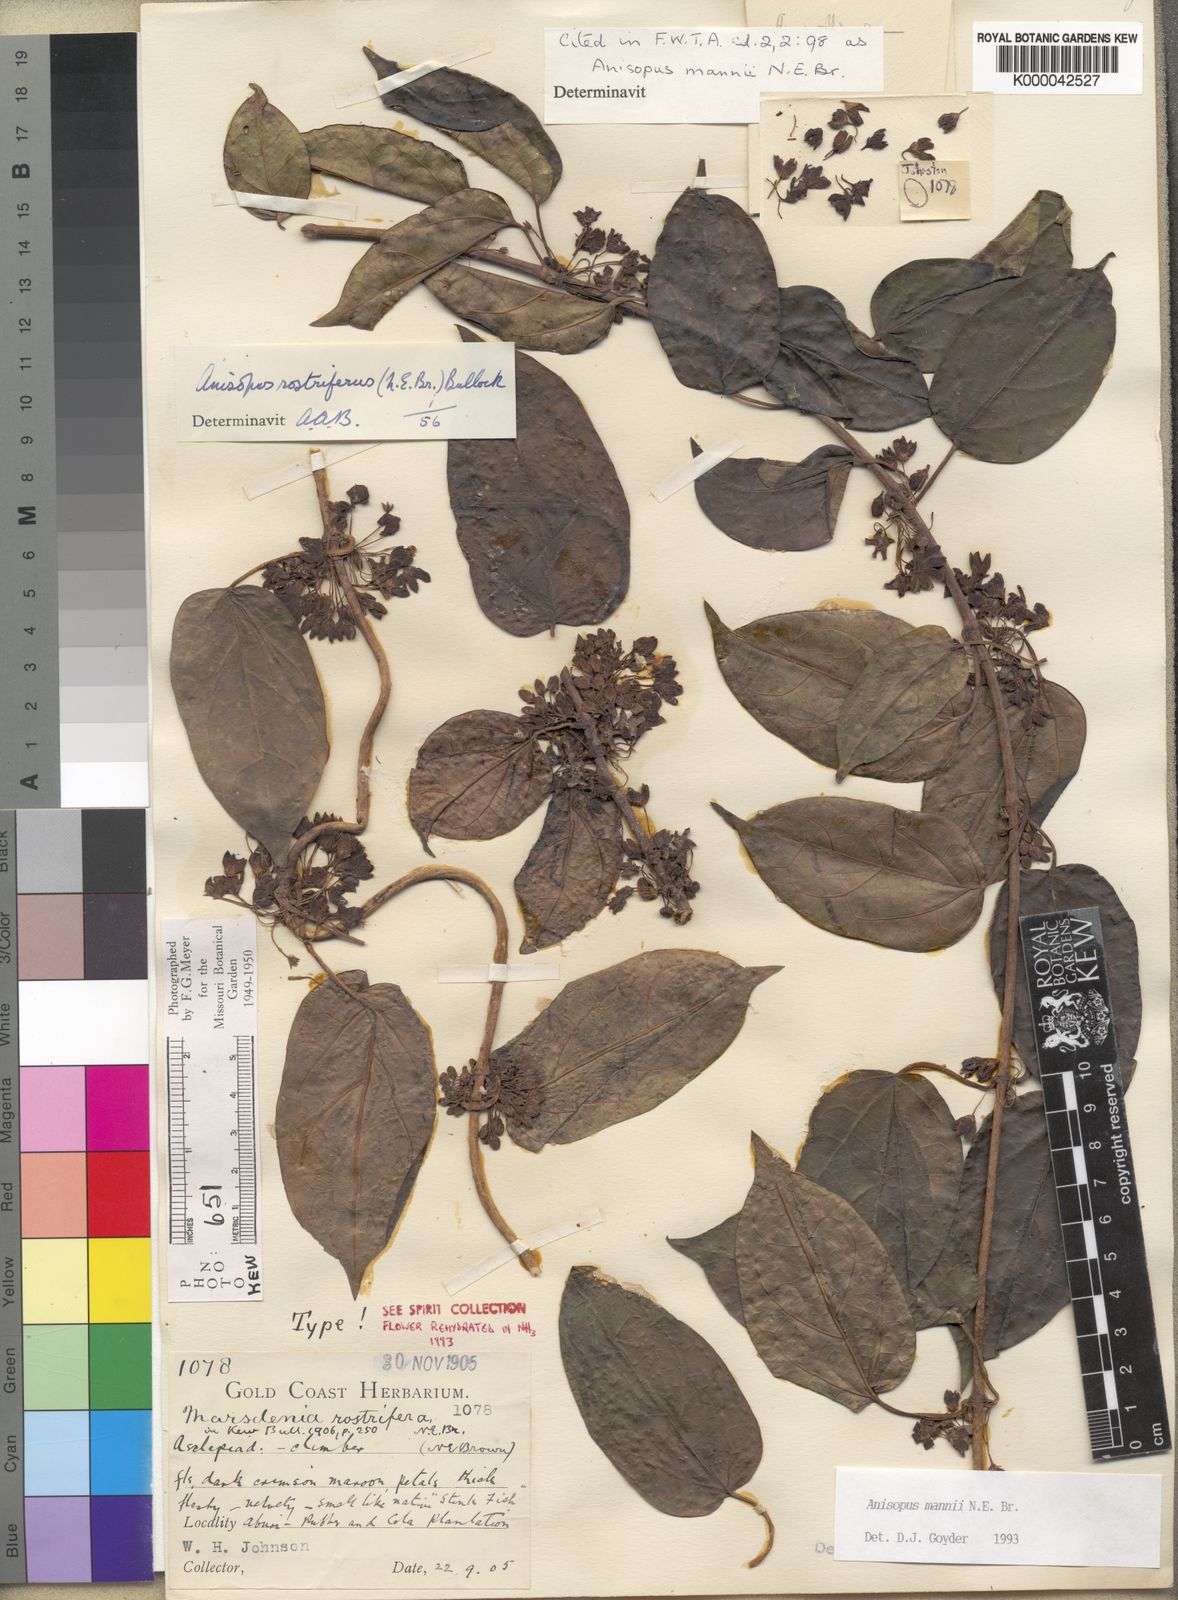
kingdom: Plantae
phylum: Tracheophyta
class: Magnoliopsida
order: Gentianales
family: Apocynaceae
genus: Anisopus
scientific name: Anisopus mannii
